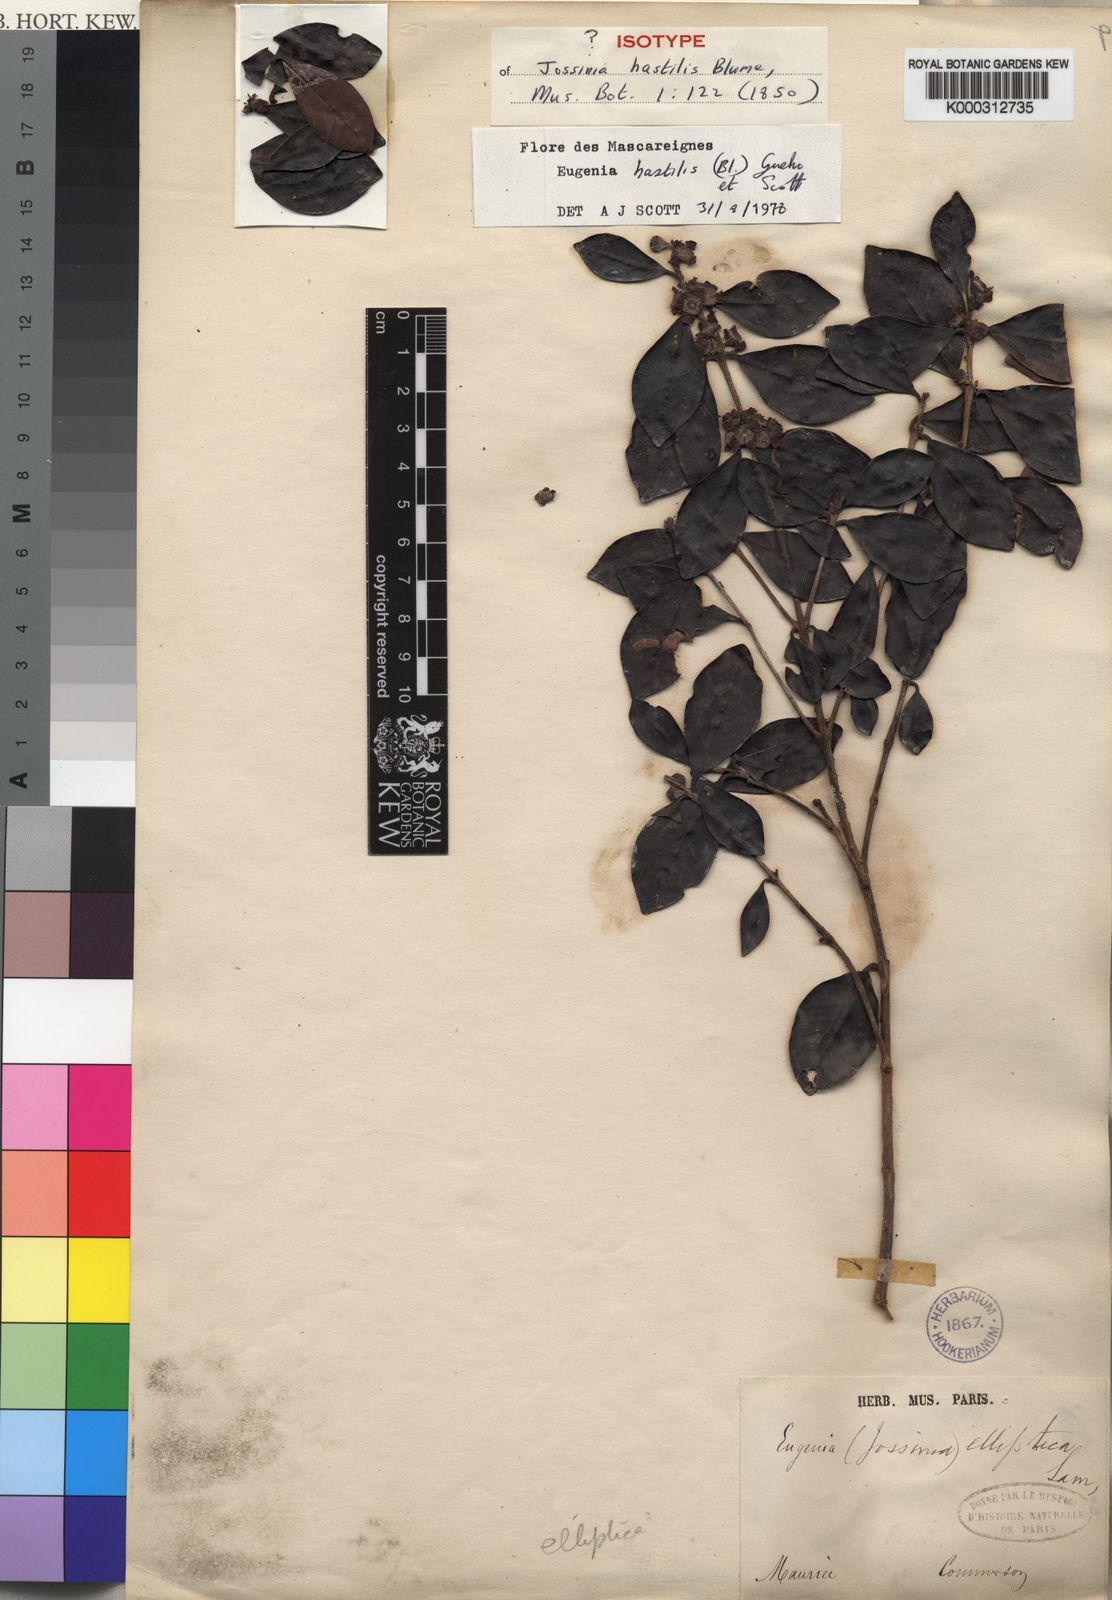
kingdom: Plantae
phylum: Tracheophyta
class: Magnoliopsida
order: Myrtales
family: Myrtaceae
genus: Eugenia
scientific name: Eugenia hastilis
